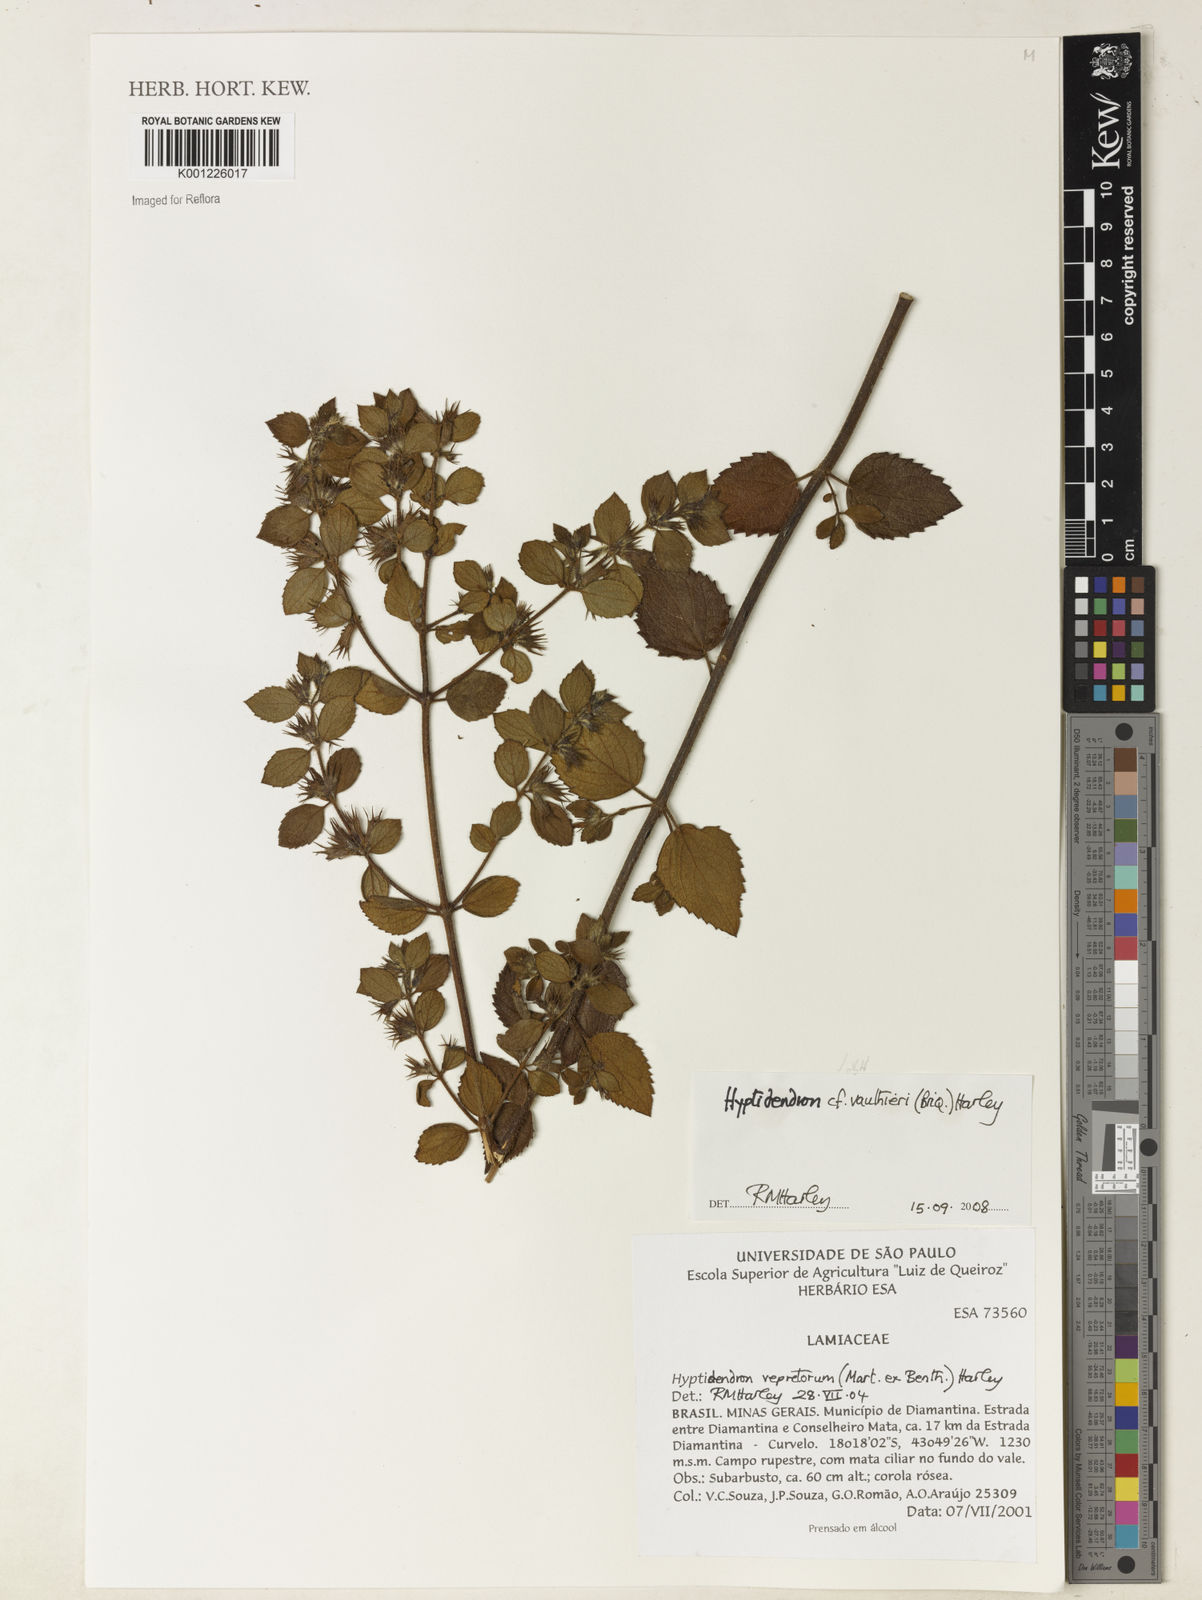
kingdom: Plantae
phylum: Tracheophyta
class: Magnoliopsida
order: Lamiales
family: Lamiaceae
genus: Hyptidendron
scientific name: Hyptidendron vauthieri
